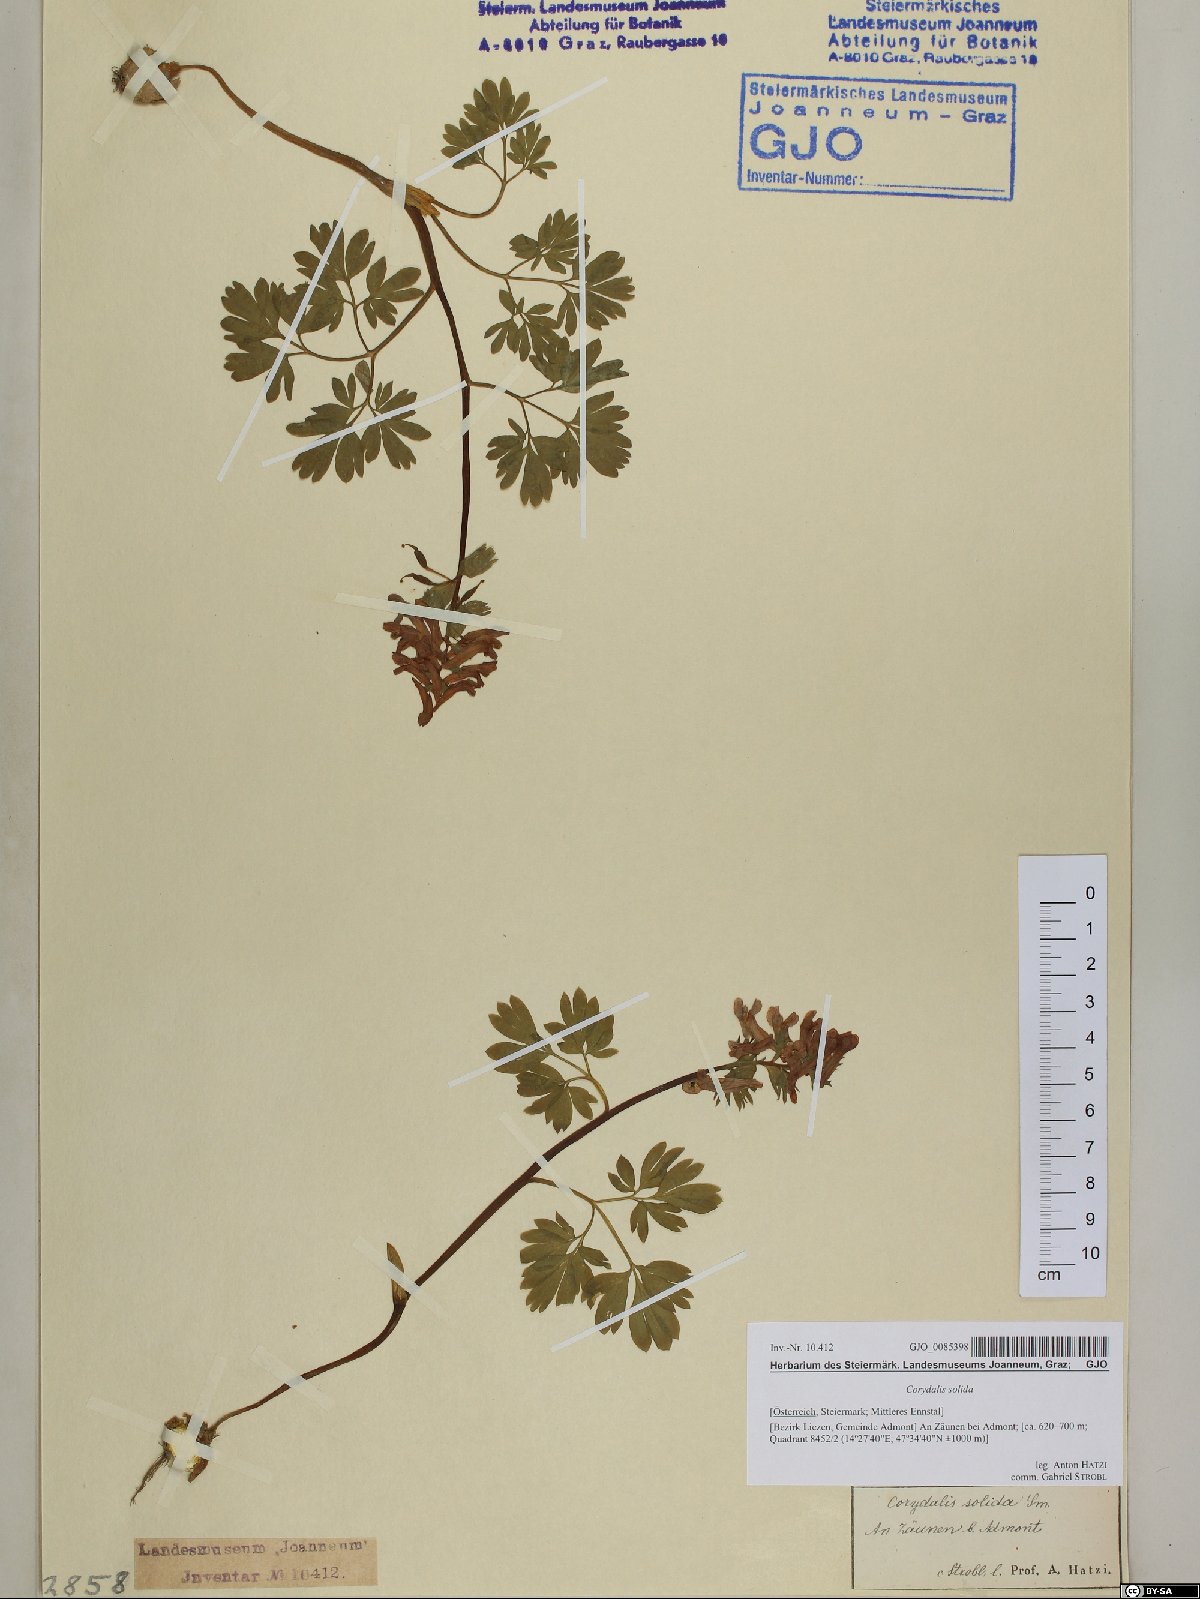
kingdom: Plantae
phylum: Tracheophyta
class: Magnoliopsida
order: Ranunculales
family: Papaveraceae
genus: Corydalis
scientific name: Corydalis solida
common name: Bird-in-a-bush
